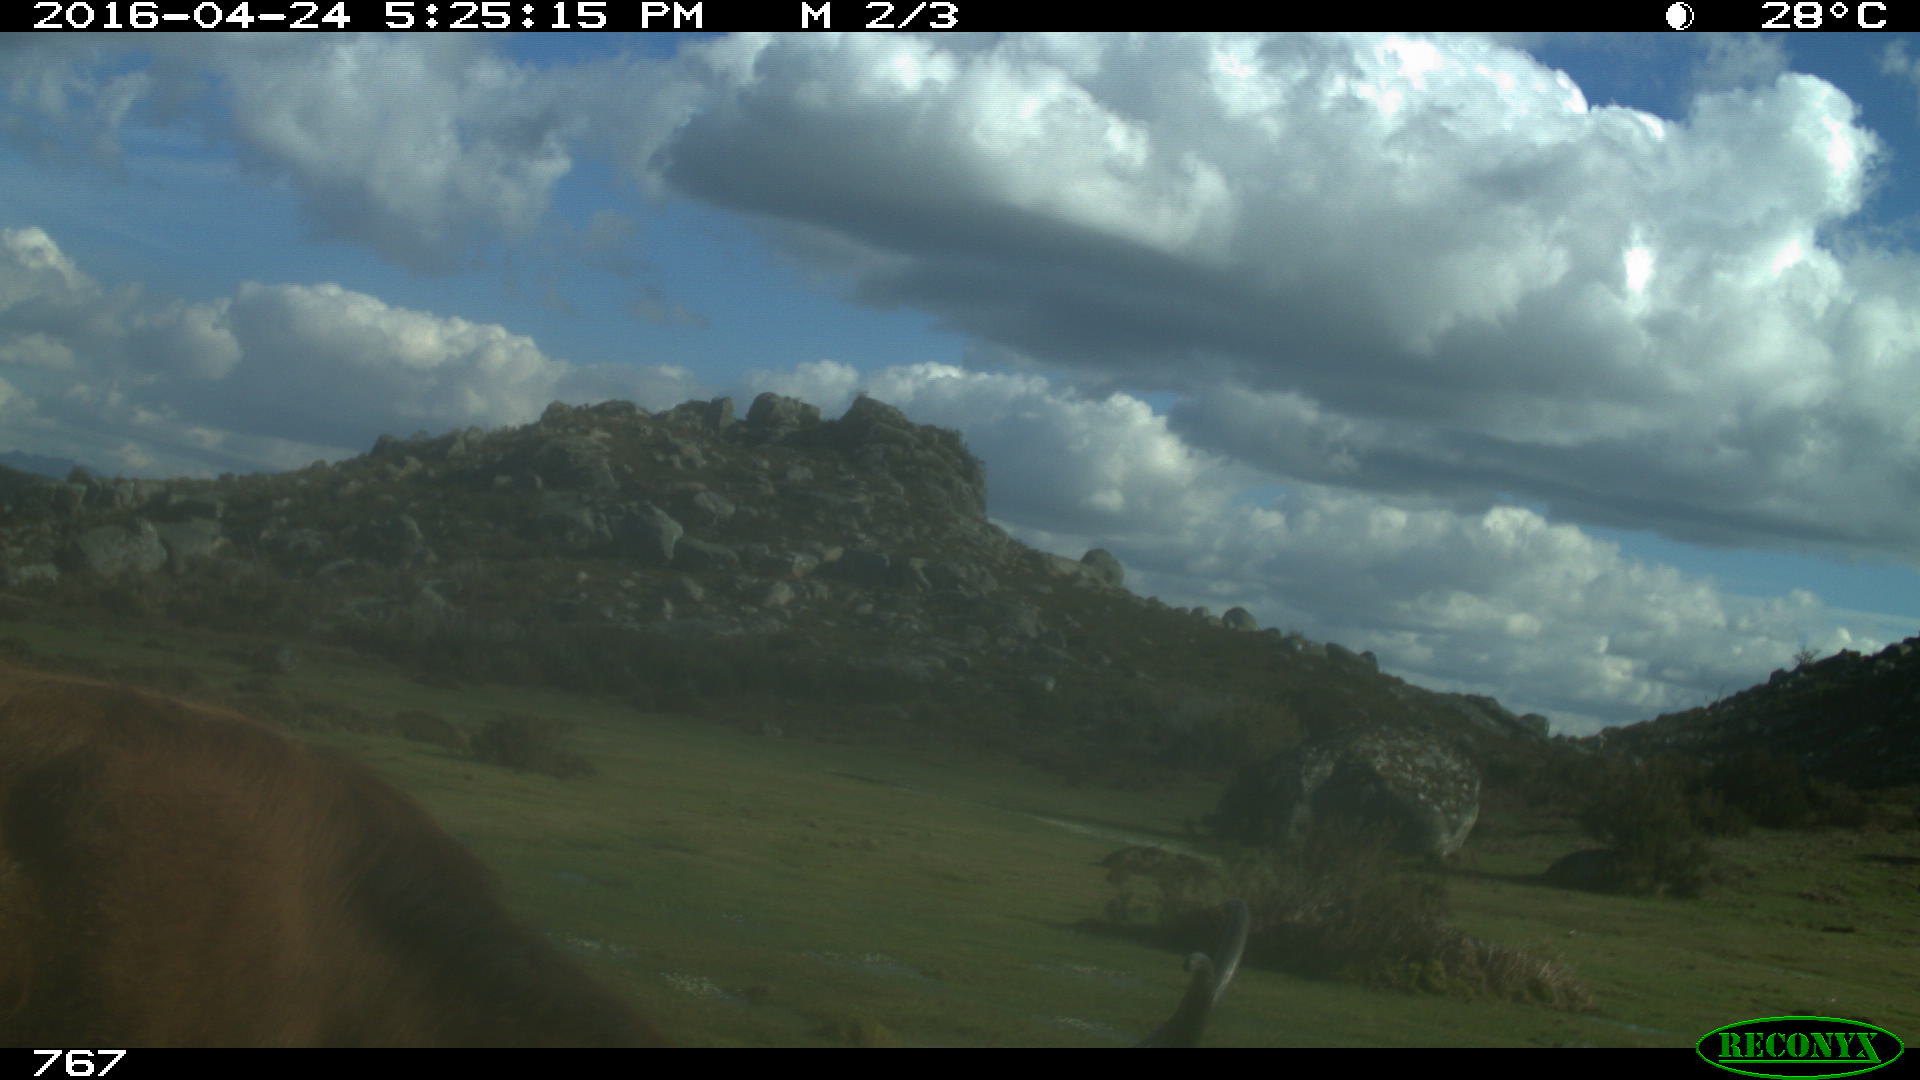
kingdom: Animalia
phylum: Chordata
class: Mammalia
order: Artiodactyla
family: Bovidae
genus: Bos
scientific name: Bos taurus
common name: Domesticated cattle
